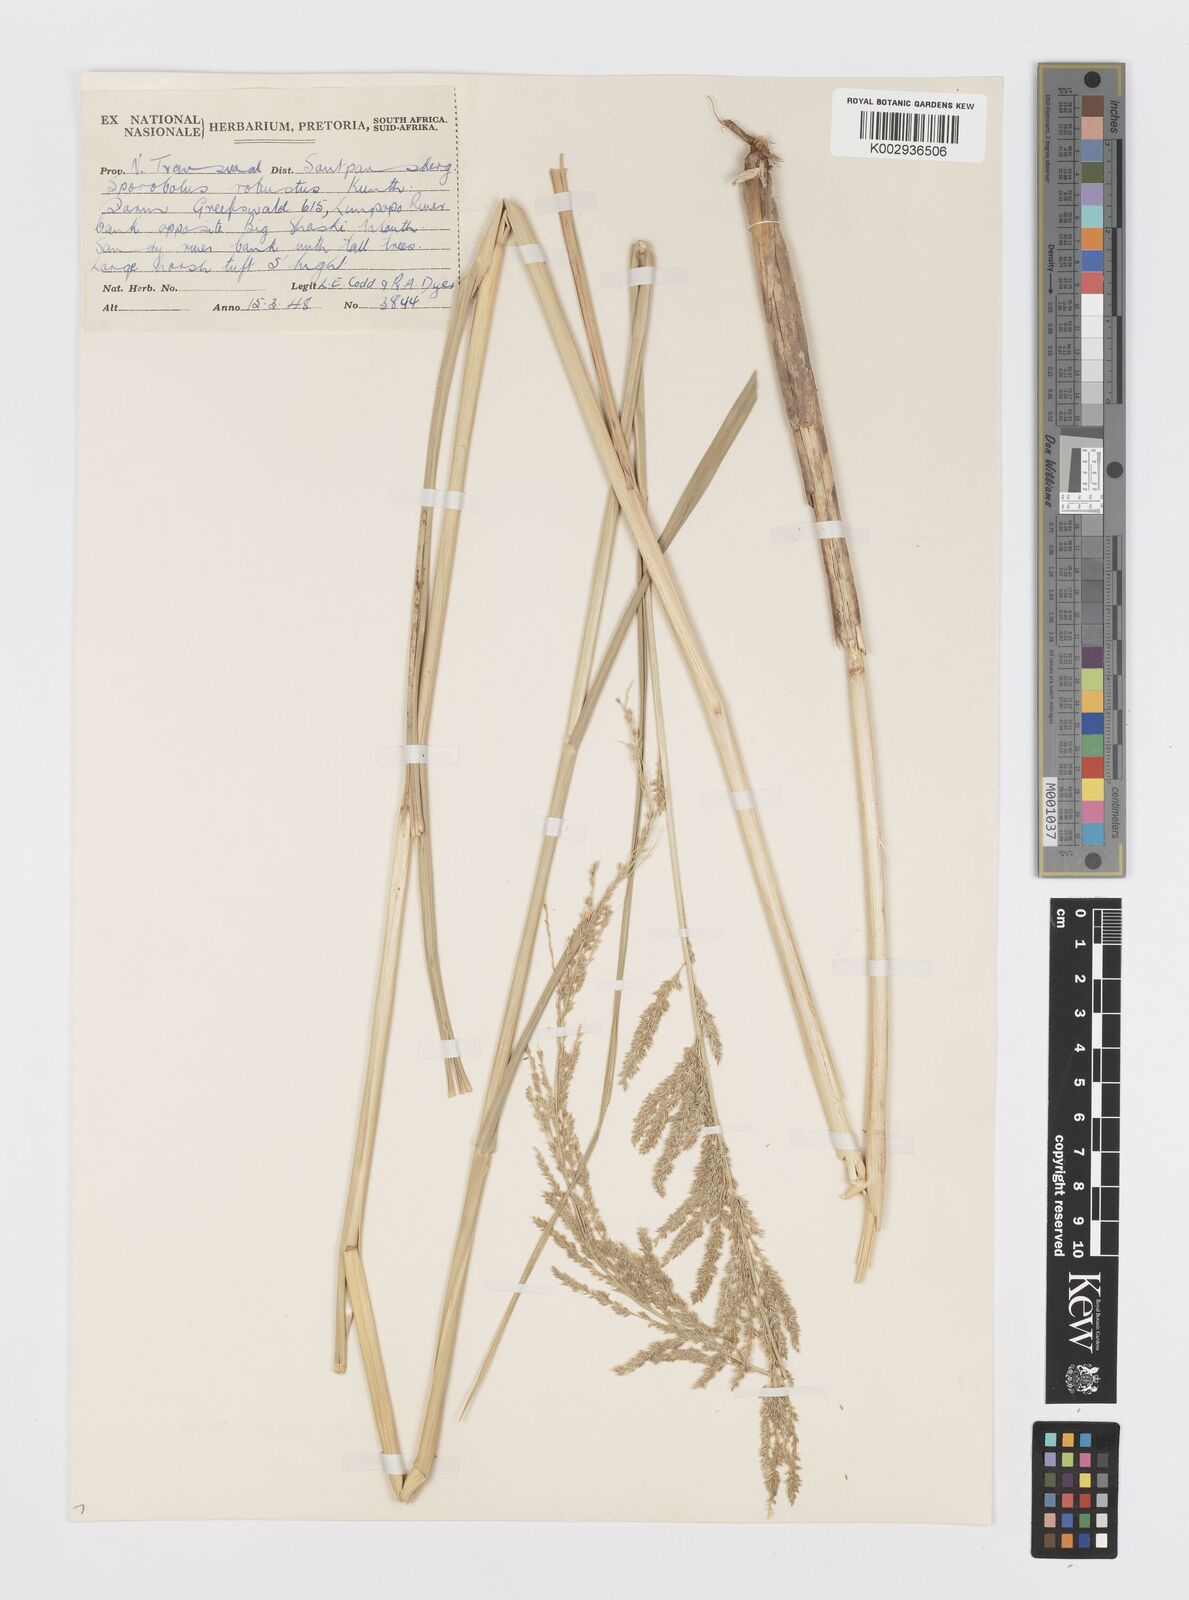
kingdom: Plantae
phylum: Tracheophyta
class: Liliopsida
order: Poales
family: Poaceae
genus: Sporobolus
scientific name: Sporobolus consimilis
